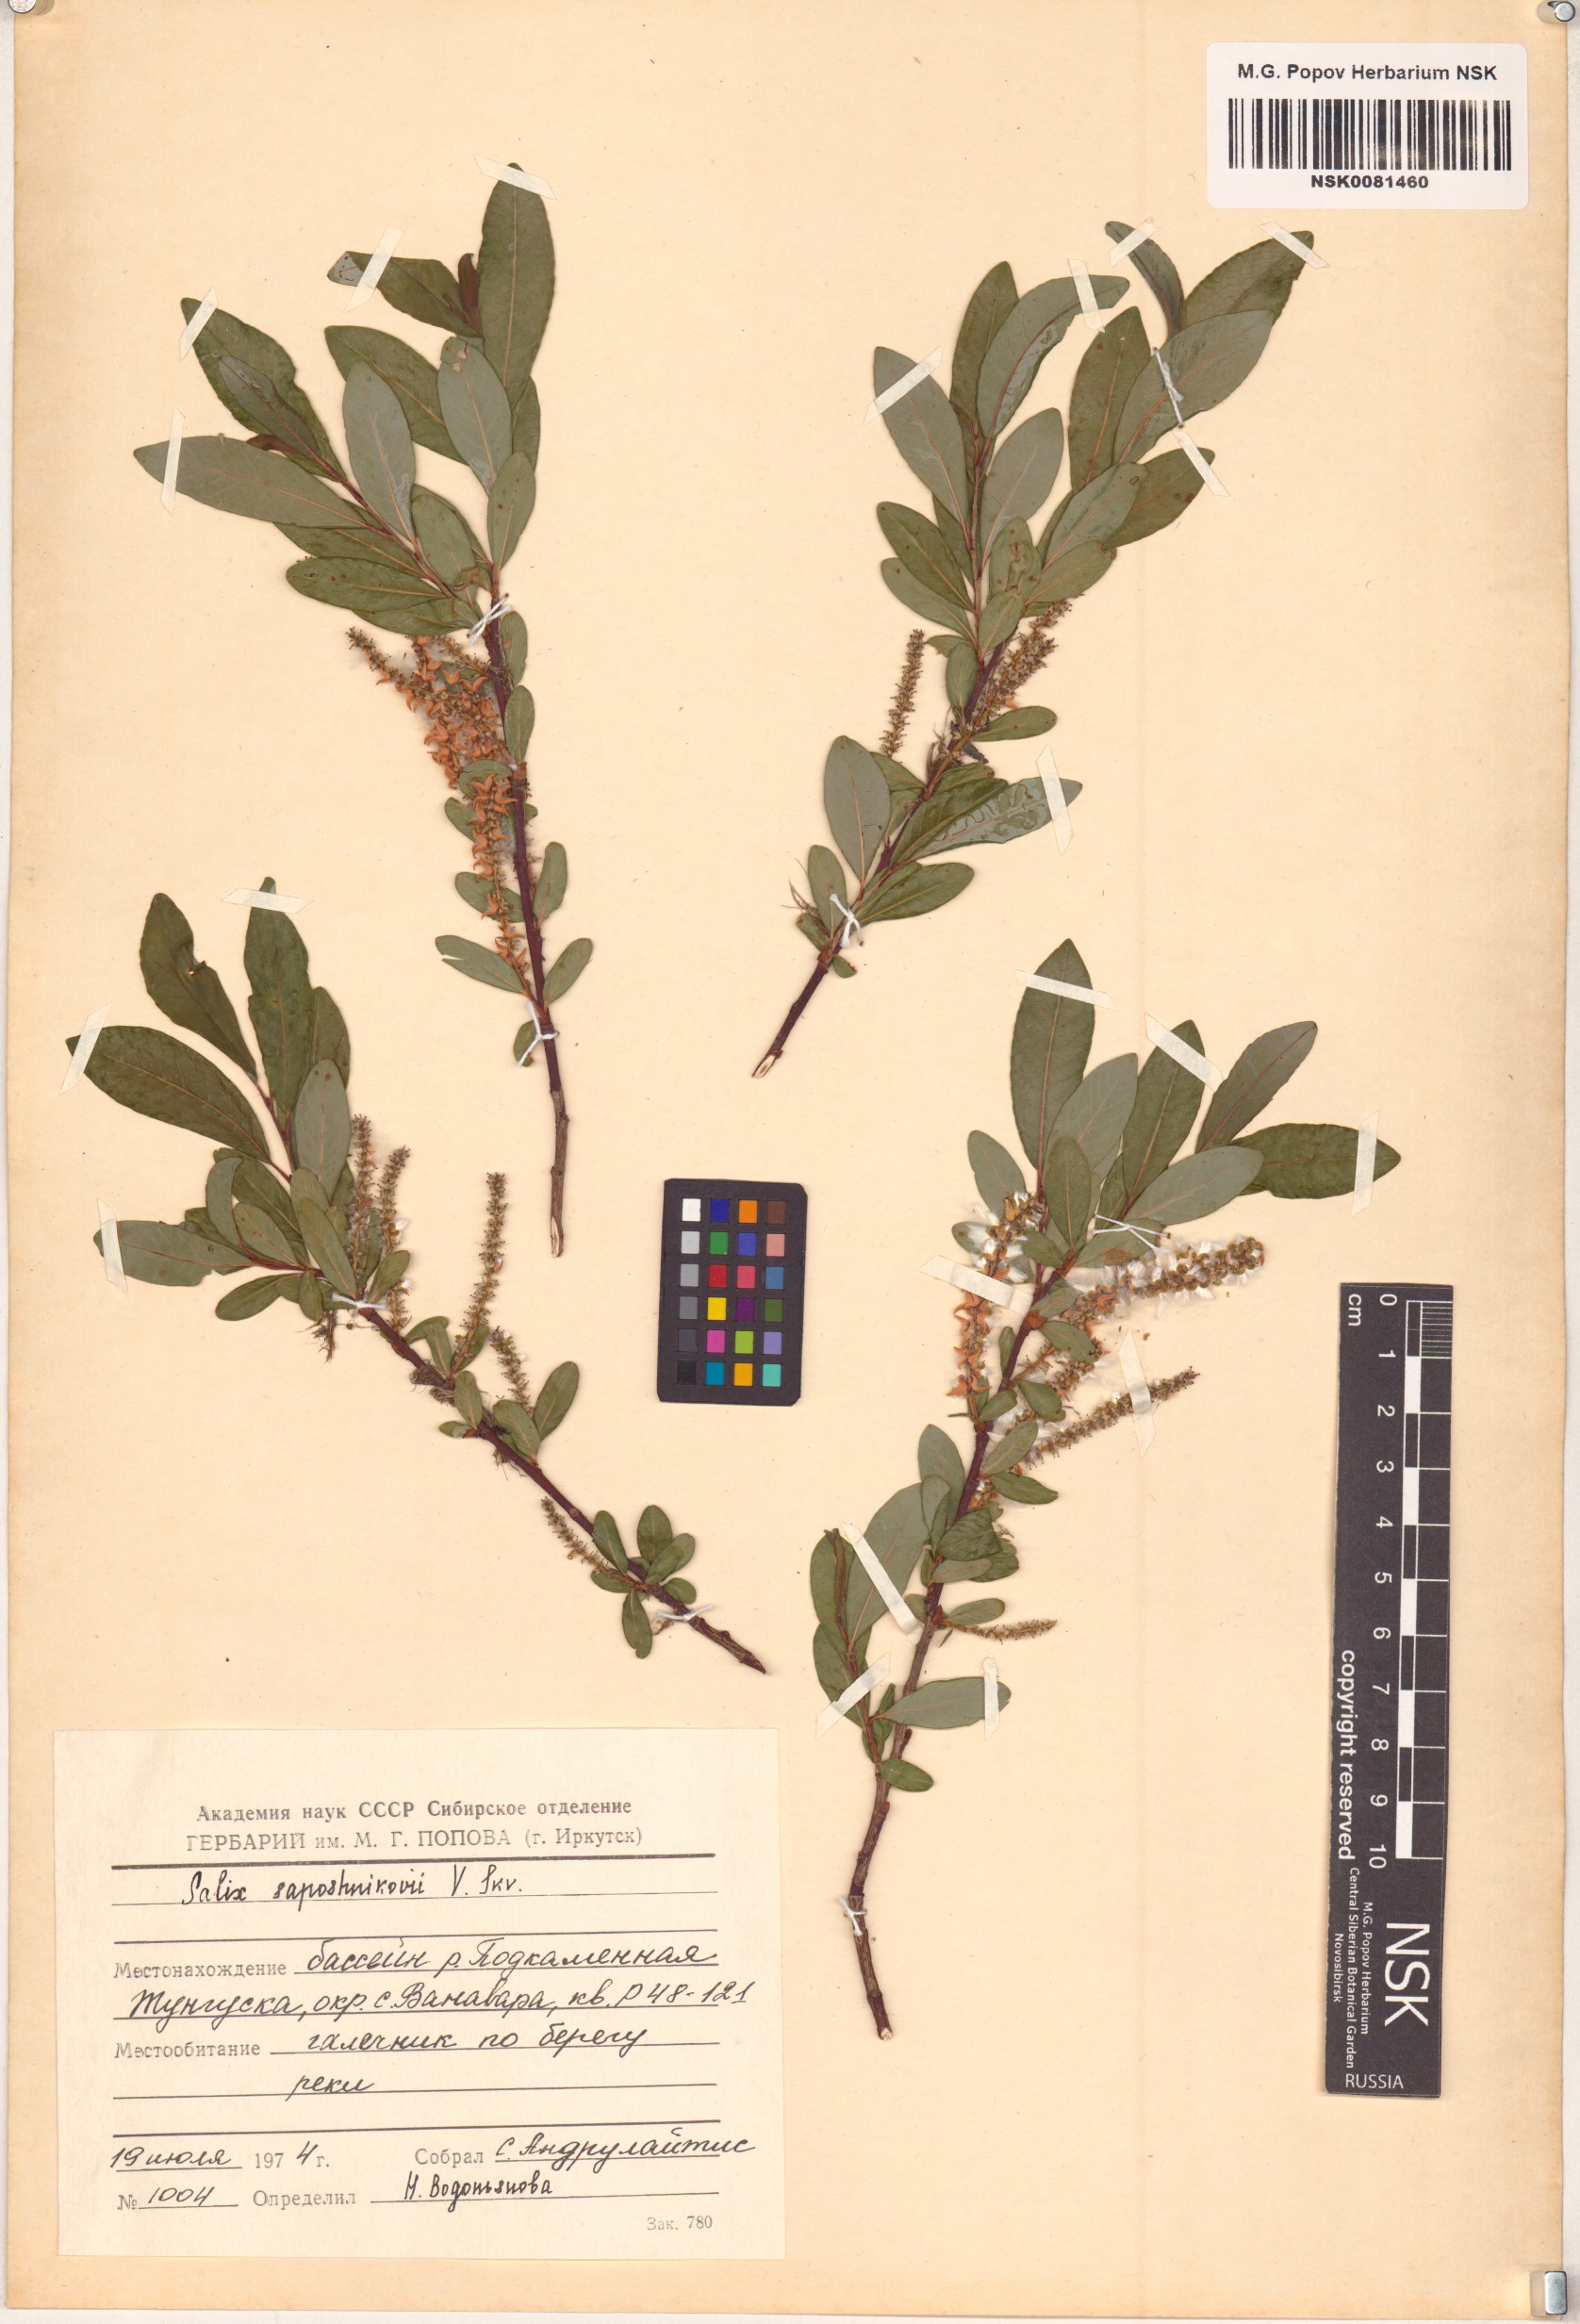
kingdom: Plantae
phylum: Tracheophyta
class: Magnoliopsida
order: Malpighiales
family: Salicaceae
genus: Salix
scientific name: Salix saposhnikovii
